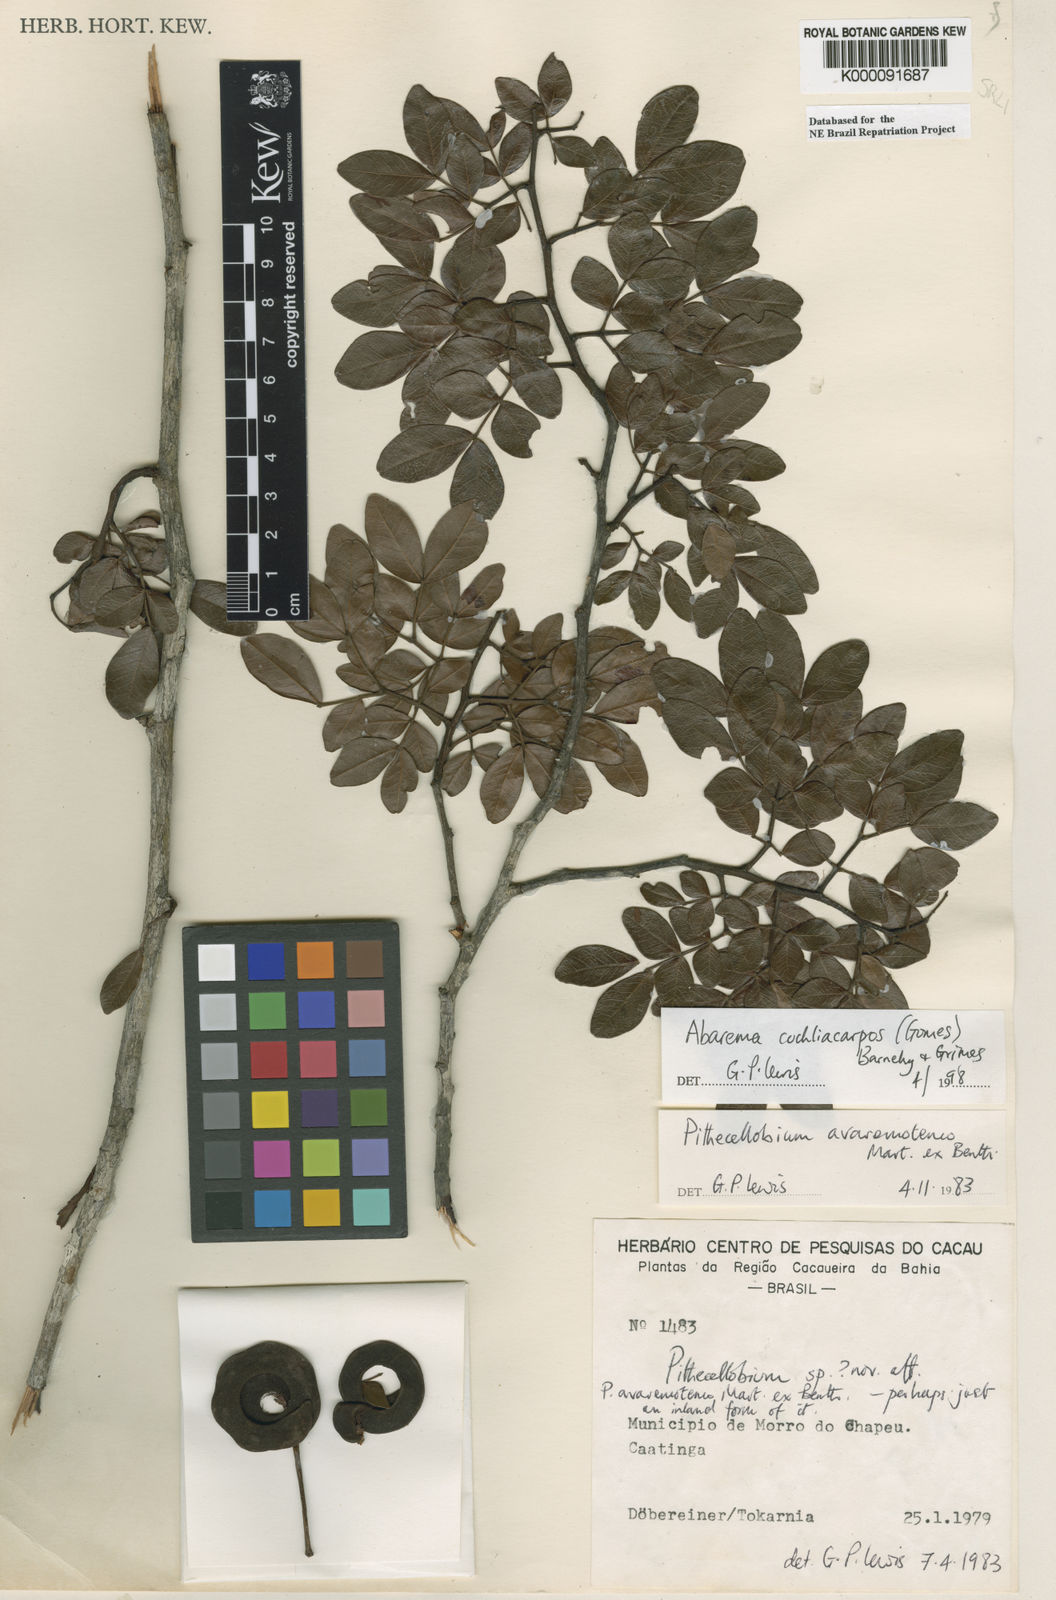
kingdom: Plantae
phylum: Tracheophyta
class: Magnoliopsida
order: Fabales
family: Fabaceae
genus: Abarema
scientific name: Abarema
